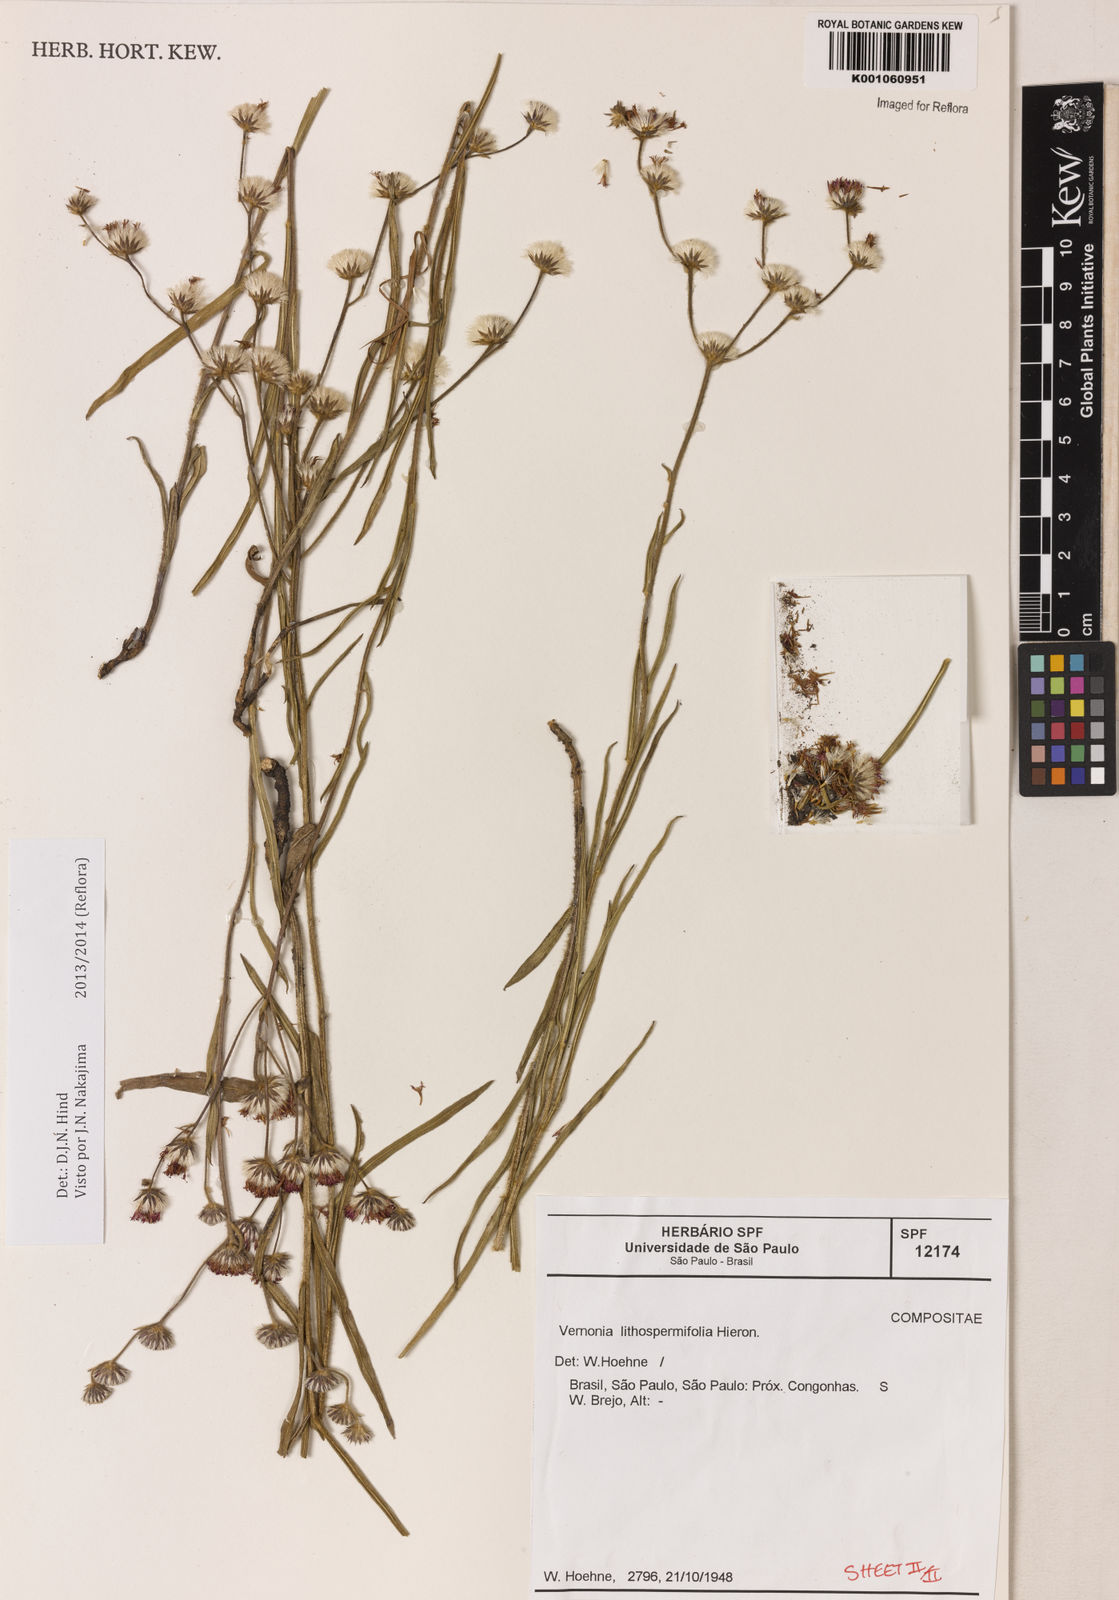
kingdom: Plantae
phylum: Tracheophyta
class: Magnoliopsida
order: Asterales
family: Asteraceae
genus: Chrysolaena
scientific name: Chrysolaena lithospermifolia
